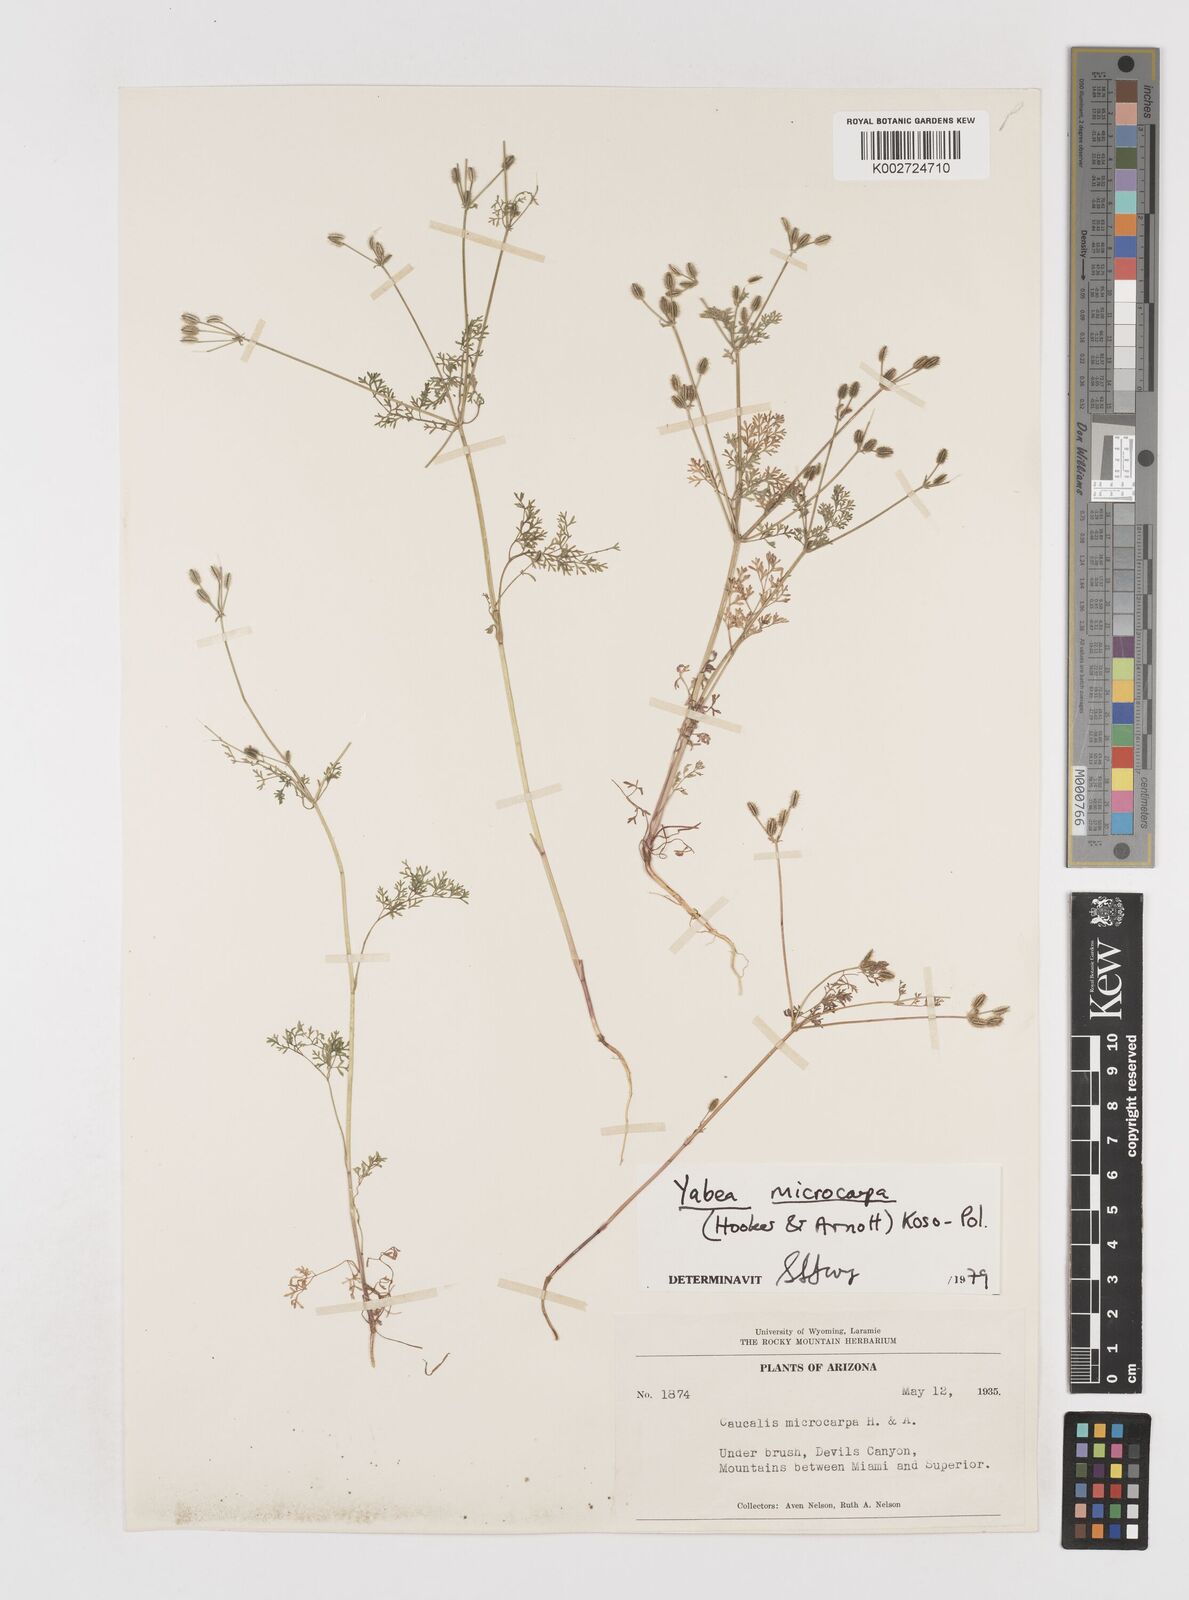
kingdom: Plantae
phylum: Tracheophyta
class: Magnoliopsida
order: Apiales
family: Apiaceae
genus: Yabea
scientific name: Yabea microcarpa
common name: False carrot
